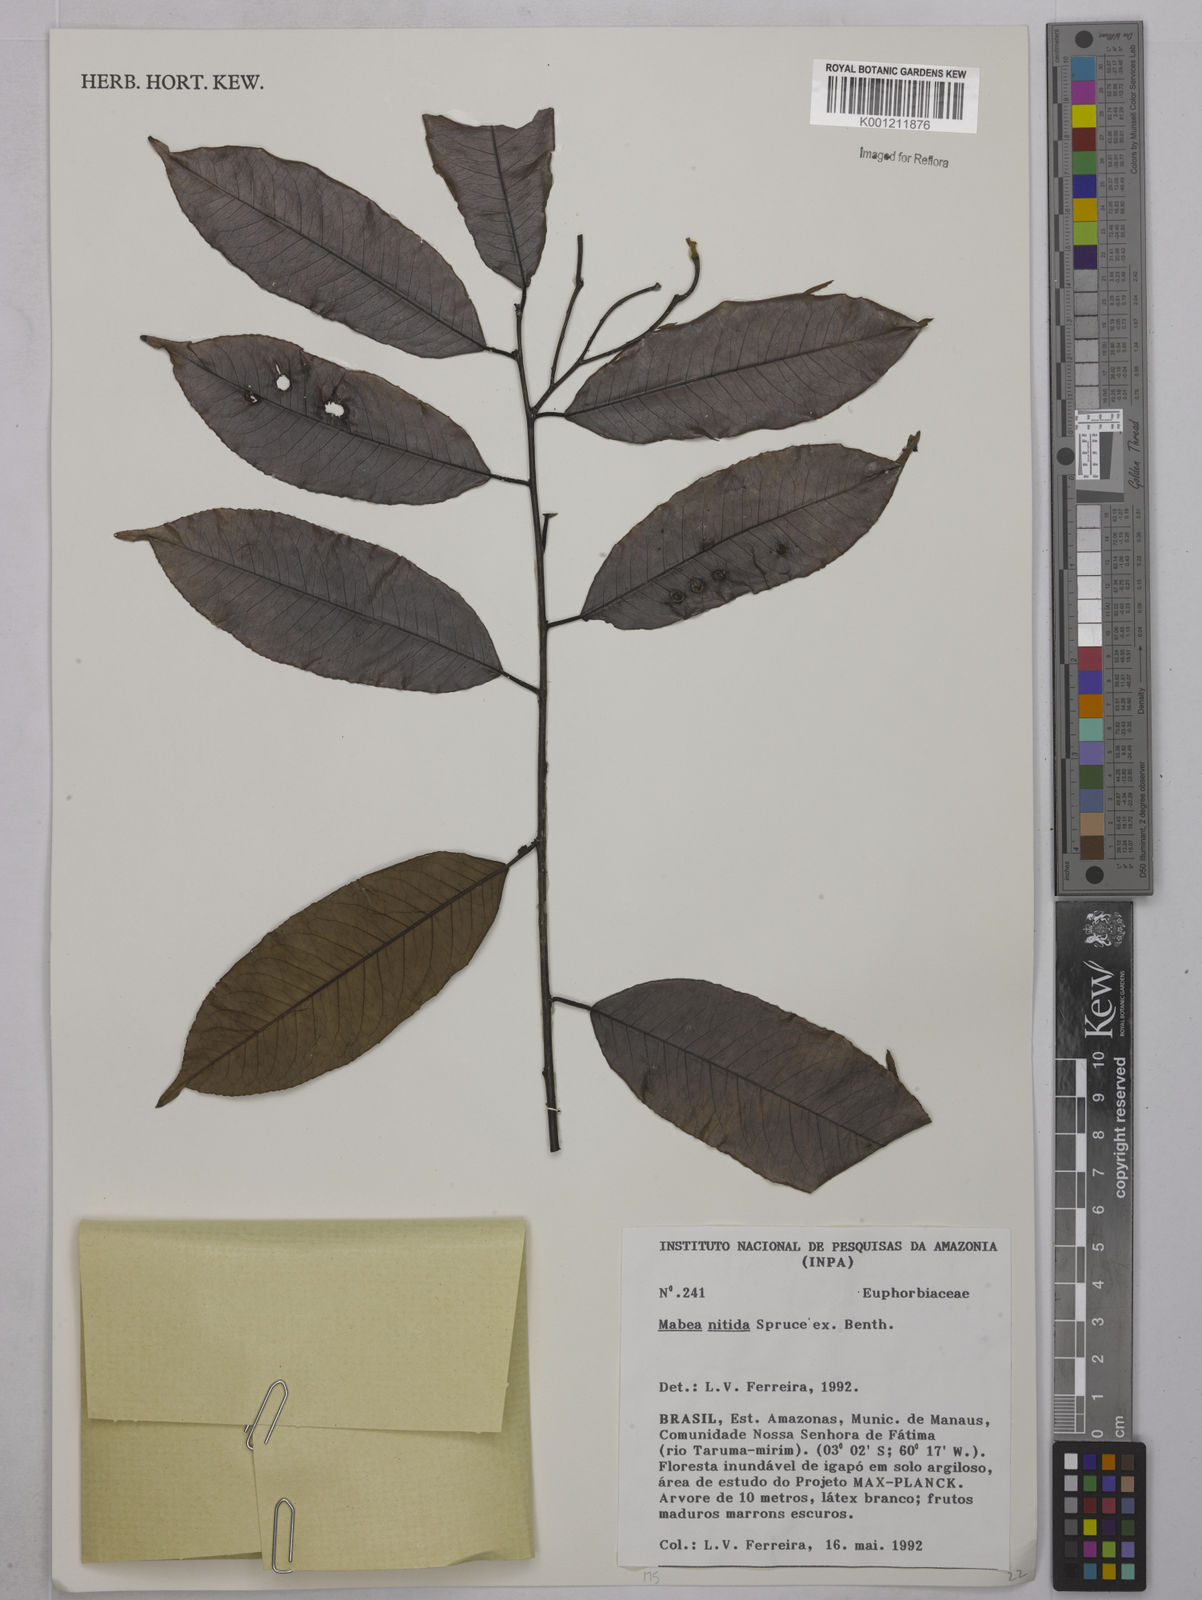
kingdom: Plantae
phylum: Tracheophyta
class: Magnoliopsida
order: Malpighiales
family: Euphorbiaceae
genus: Mabea
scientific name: Mabea nitida
